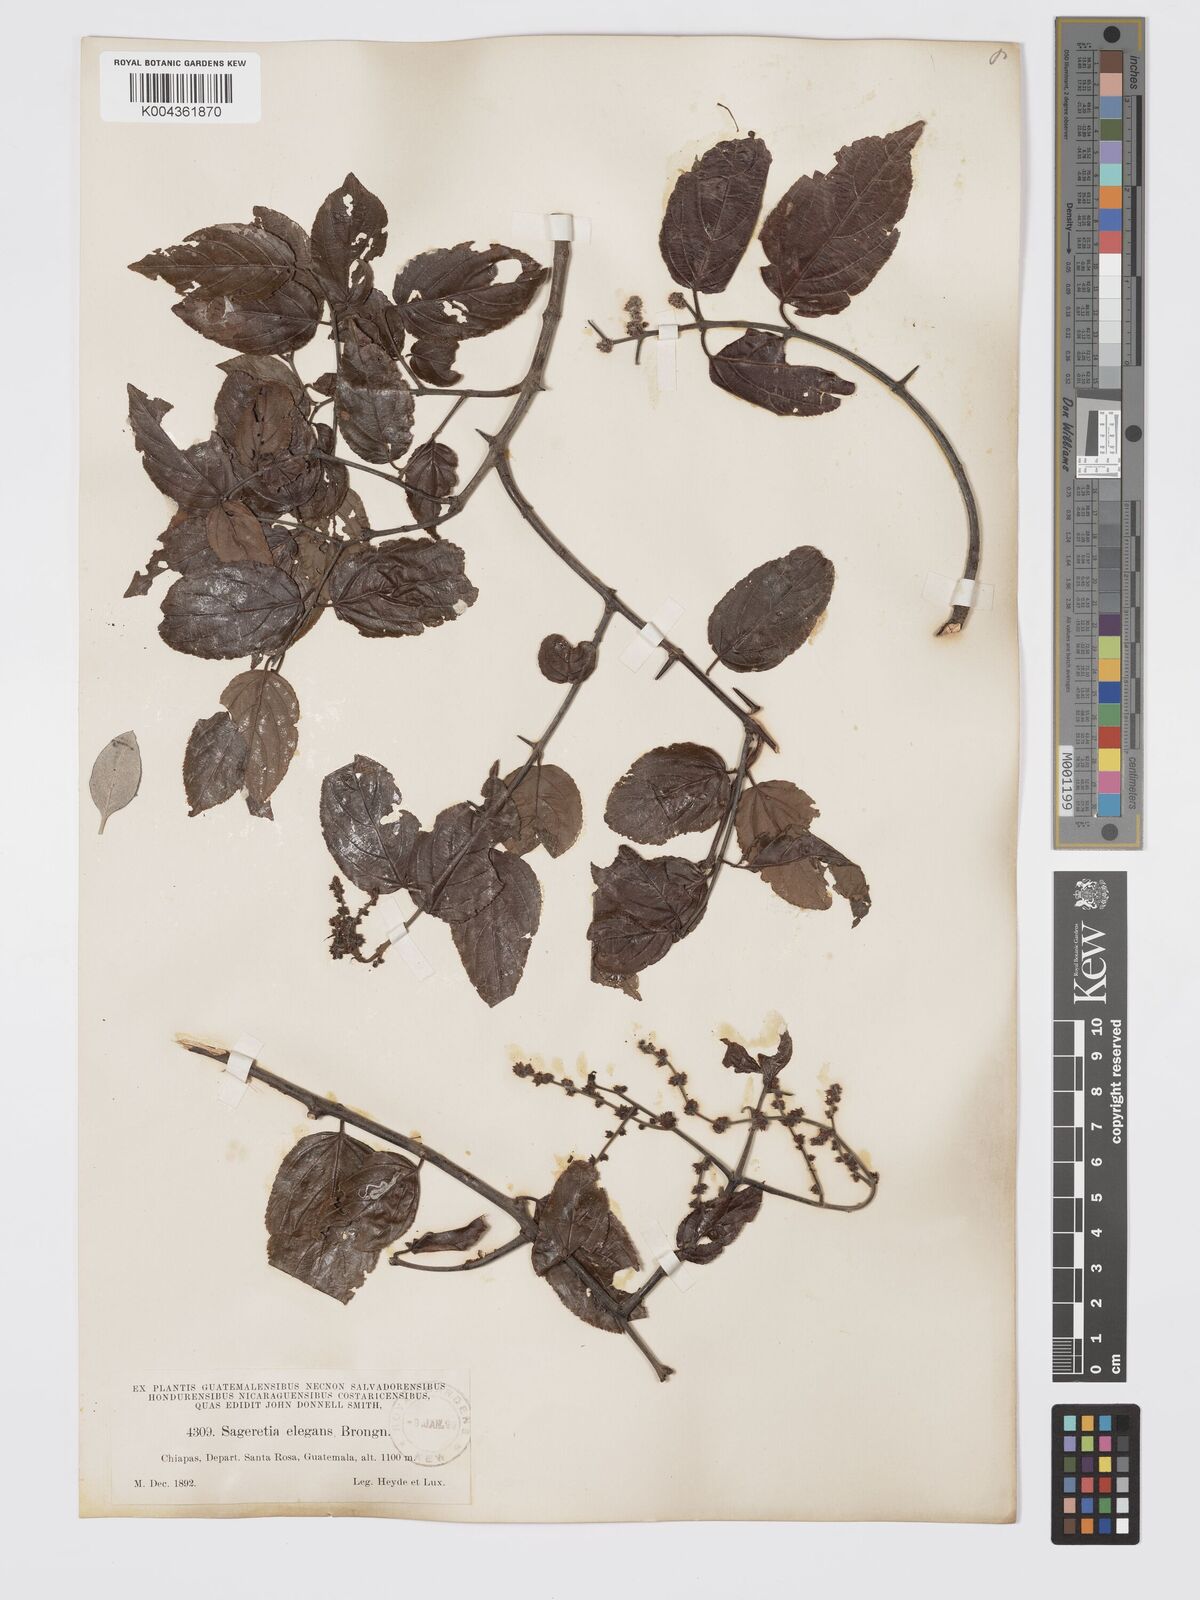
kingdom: Plantae
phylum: Tracheophyta
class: Magnoliopsida
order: Rosales
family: Rhamnaceae
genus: Sageretia
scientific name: Sageretia elegans
